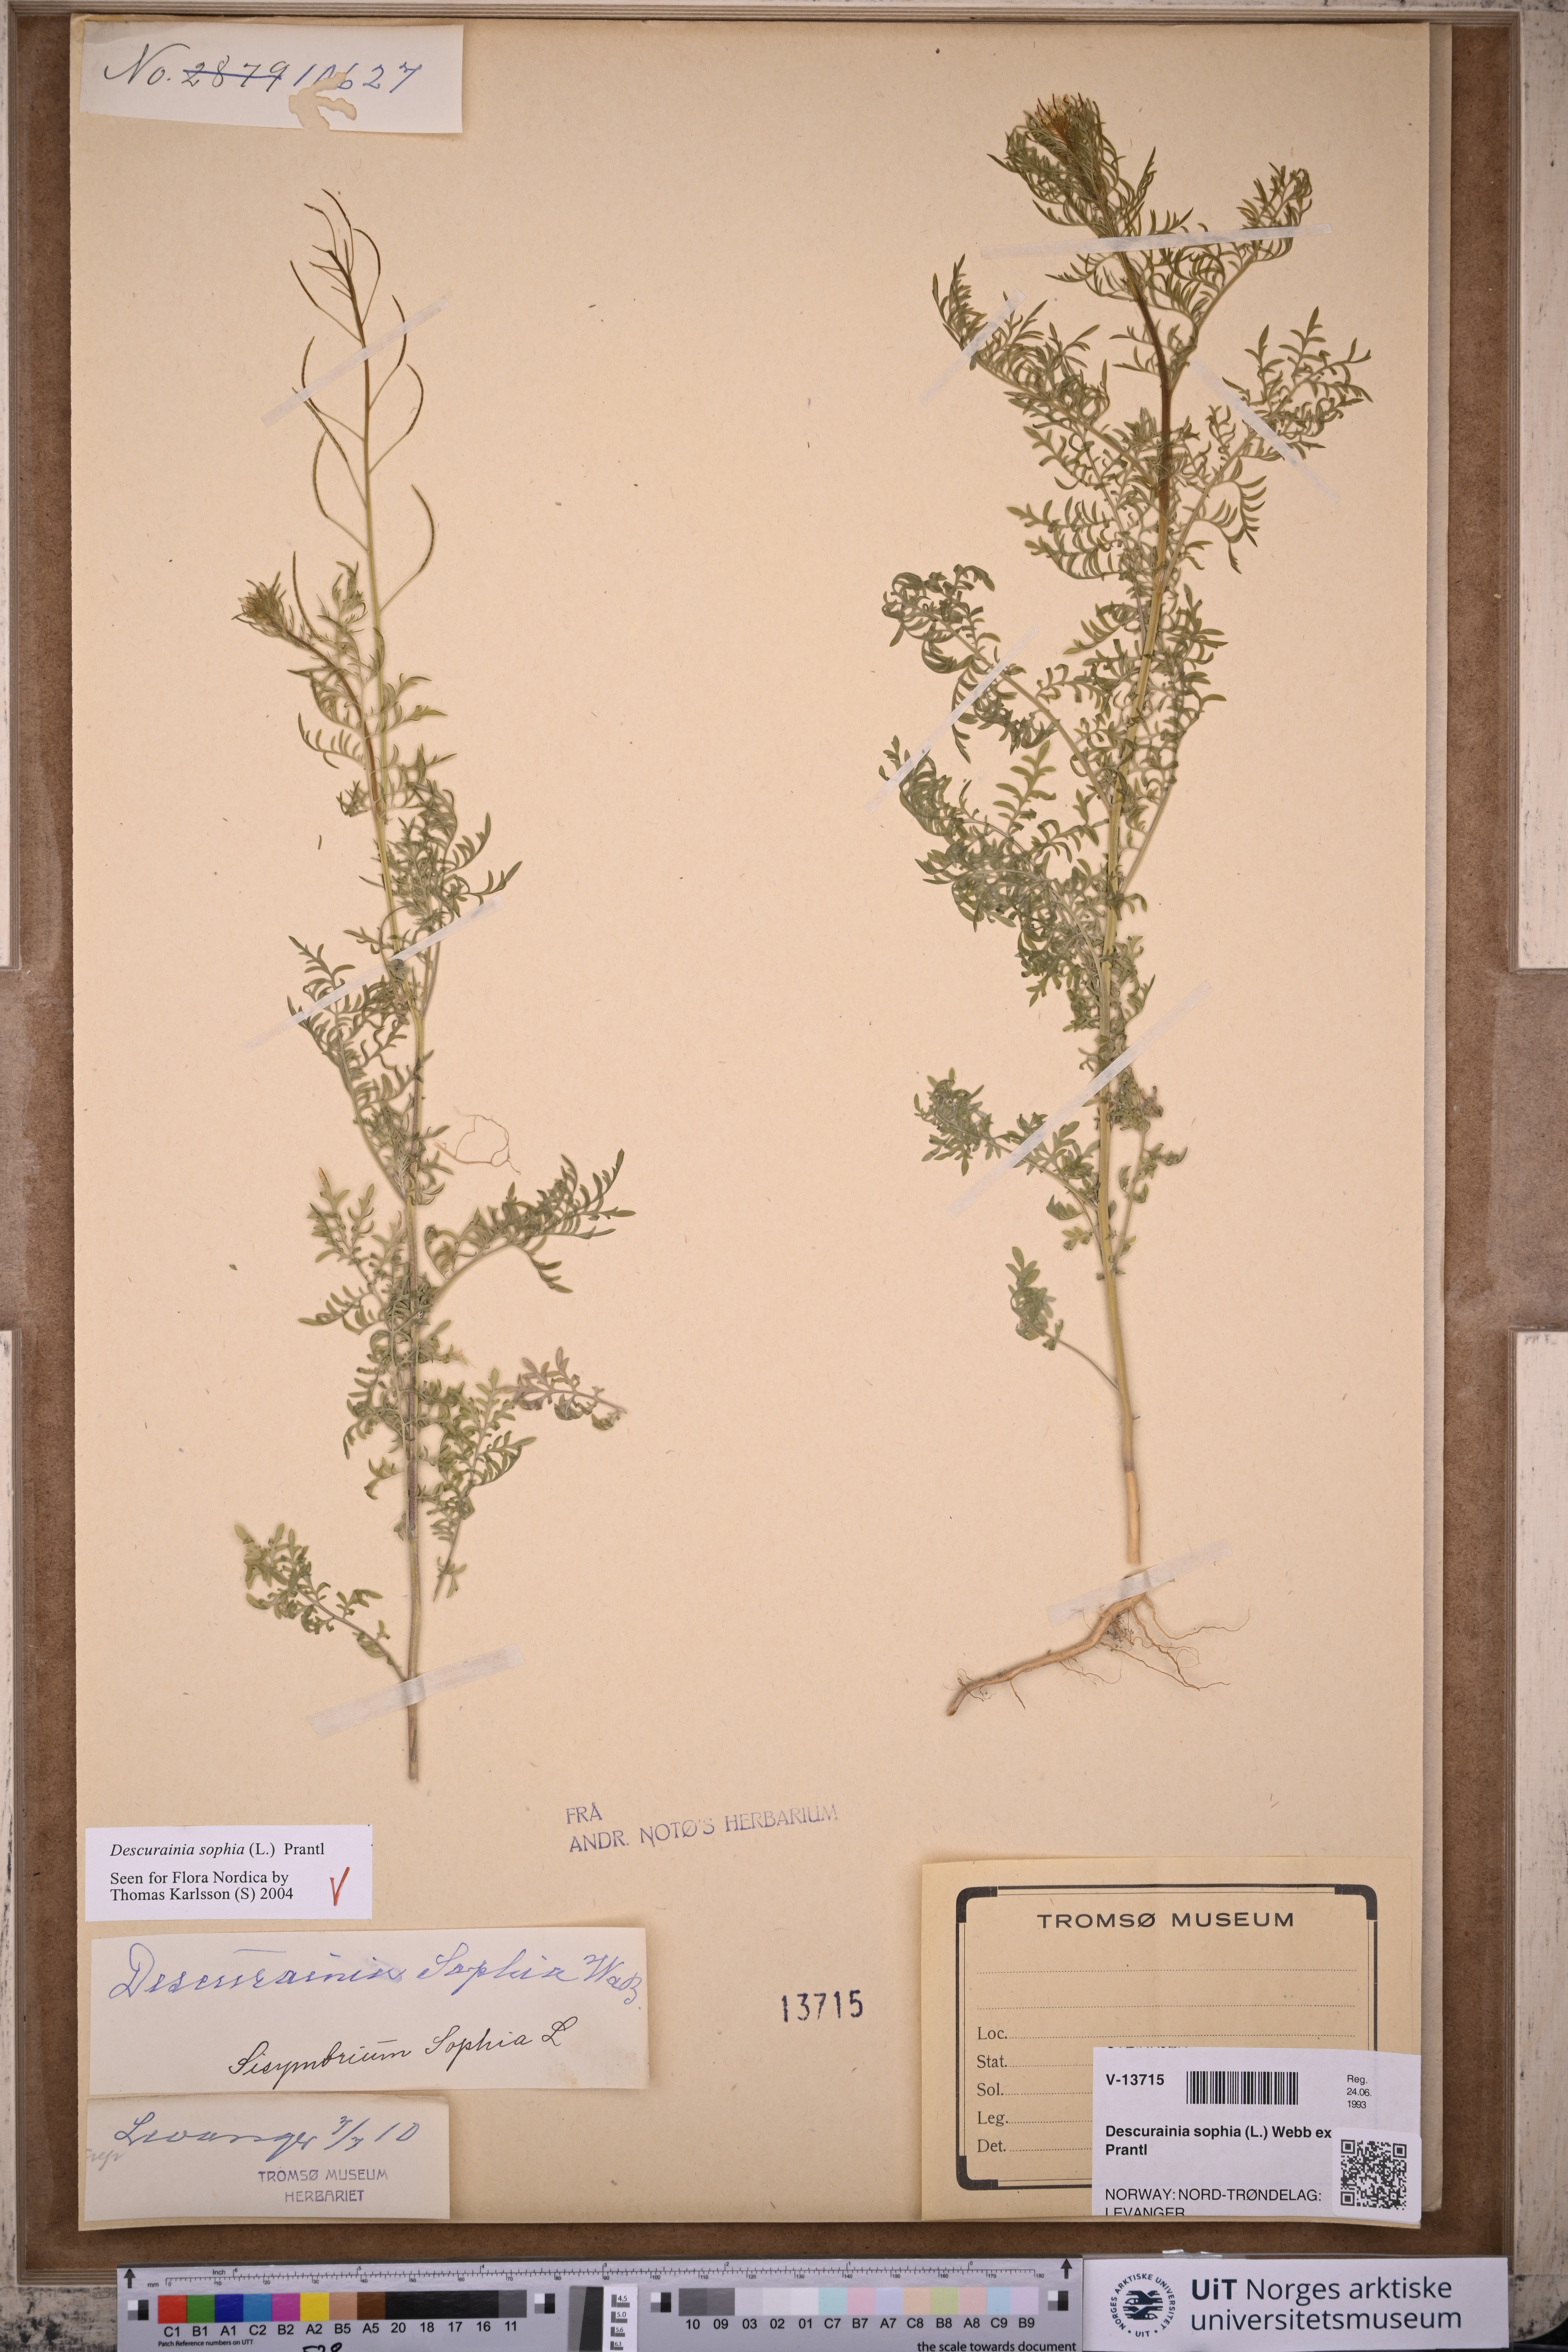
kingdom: Plantae
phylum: Tracheophyta
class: Magnoliopsida
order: Brassicales
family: Brassicaceae
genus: Descurainia
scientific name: Descurainia sophia
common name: Flixweed
